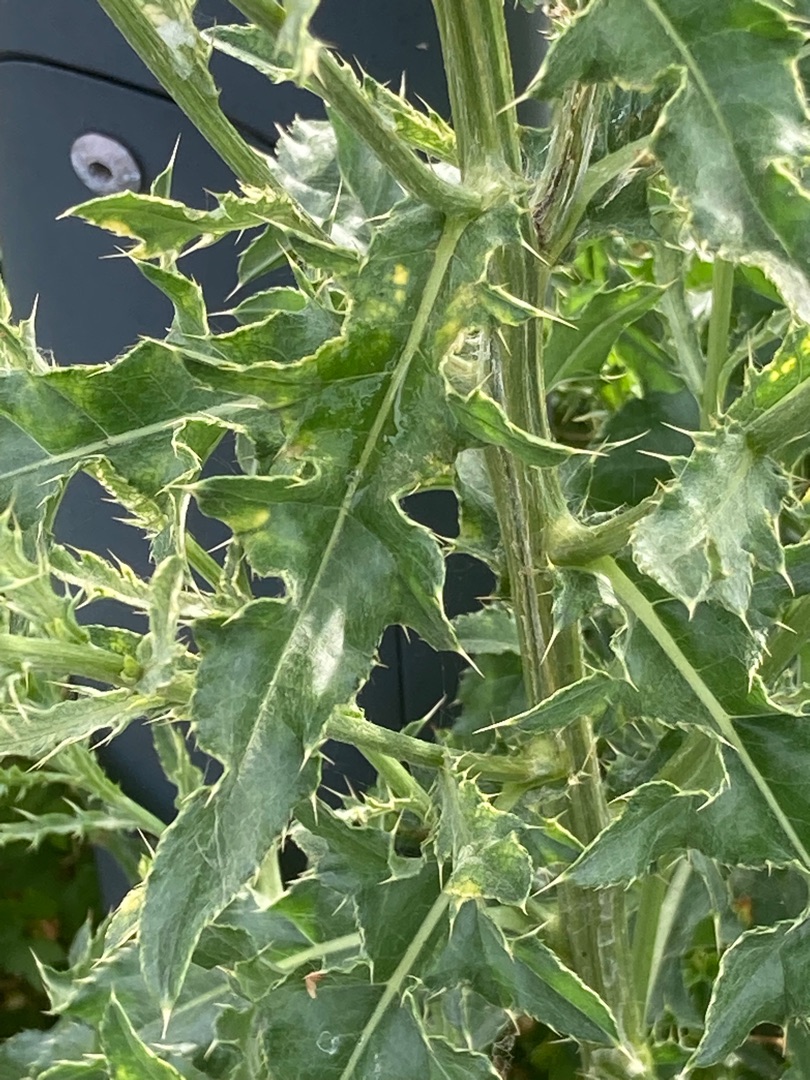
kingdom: Plantae
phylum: Tracheophyta
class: Magnoliopsida
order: Asterales
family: Asteraceae
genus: Cirsium
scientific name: Cirsium arvense
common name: Ager-tidsel
